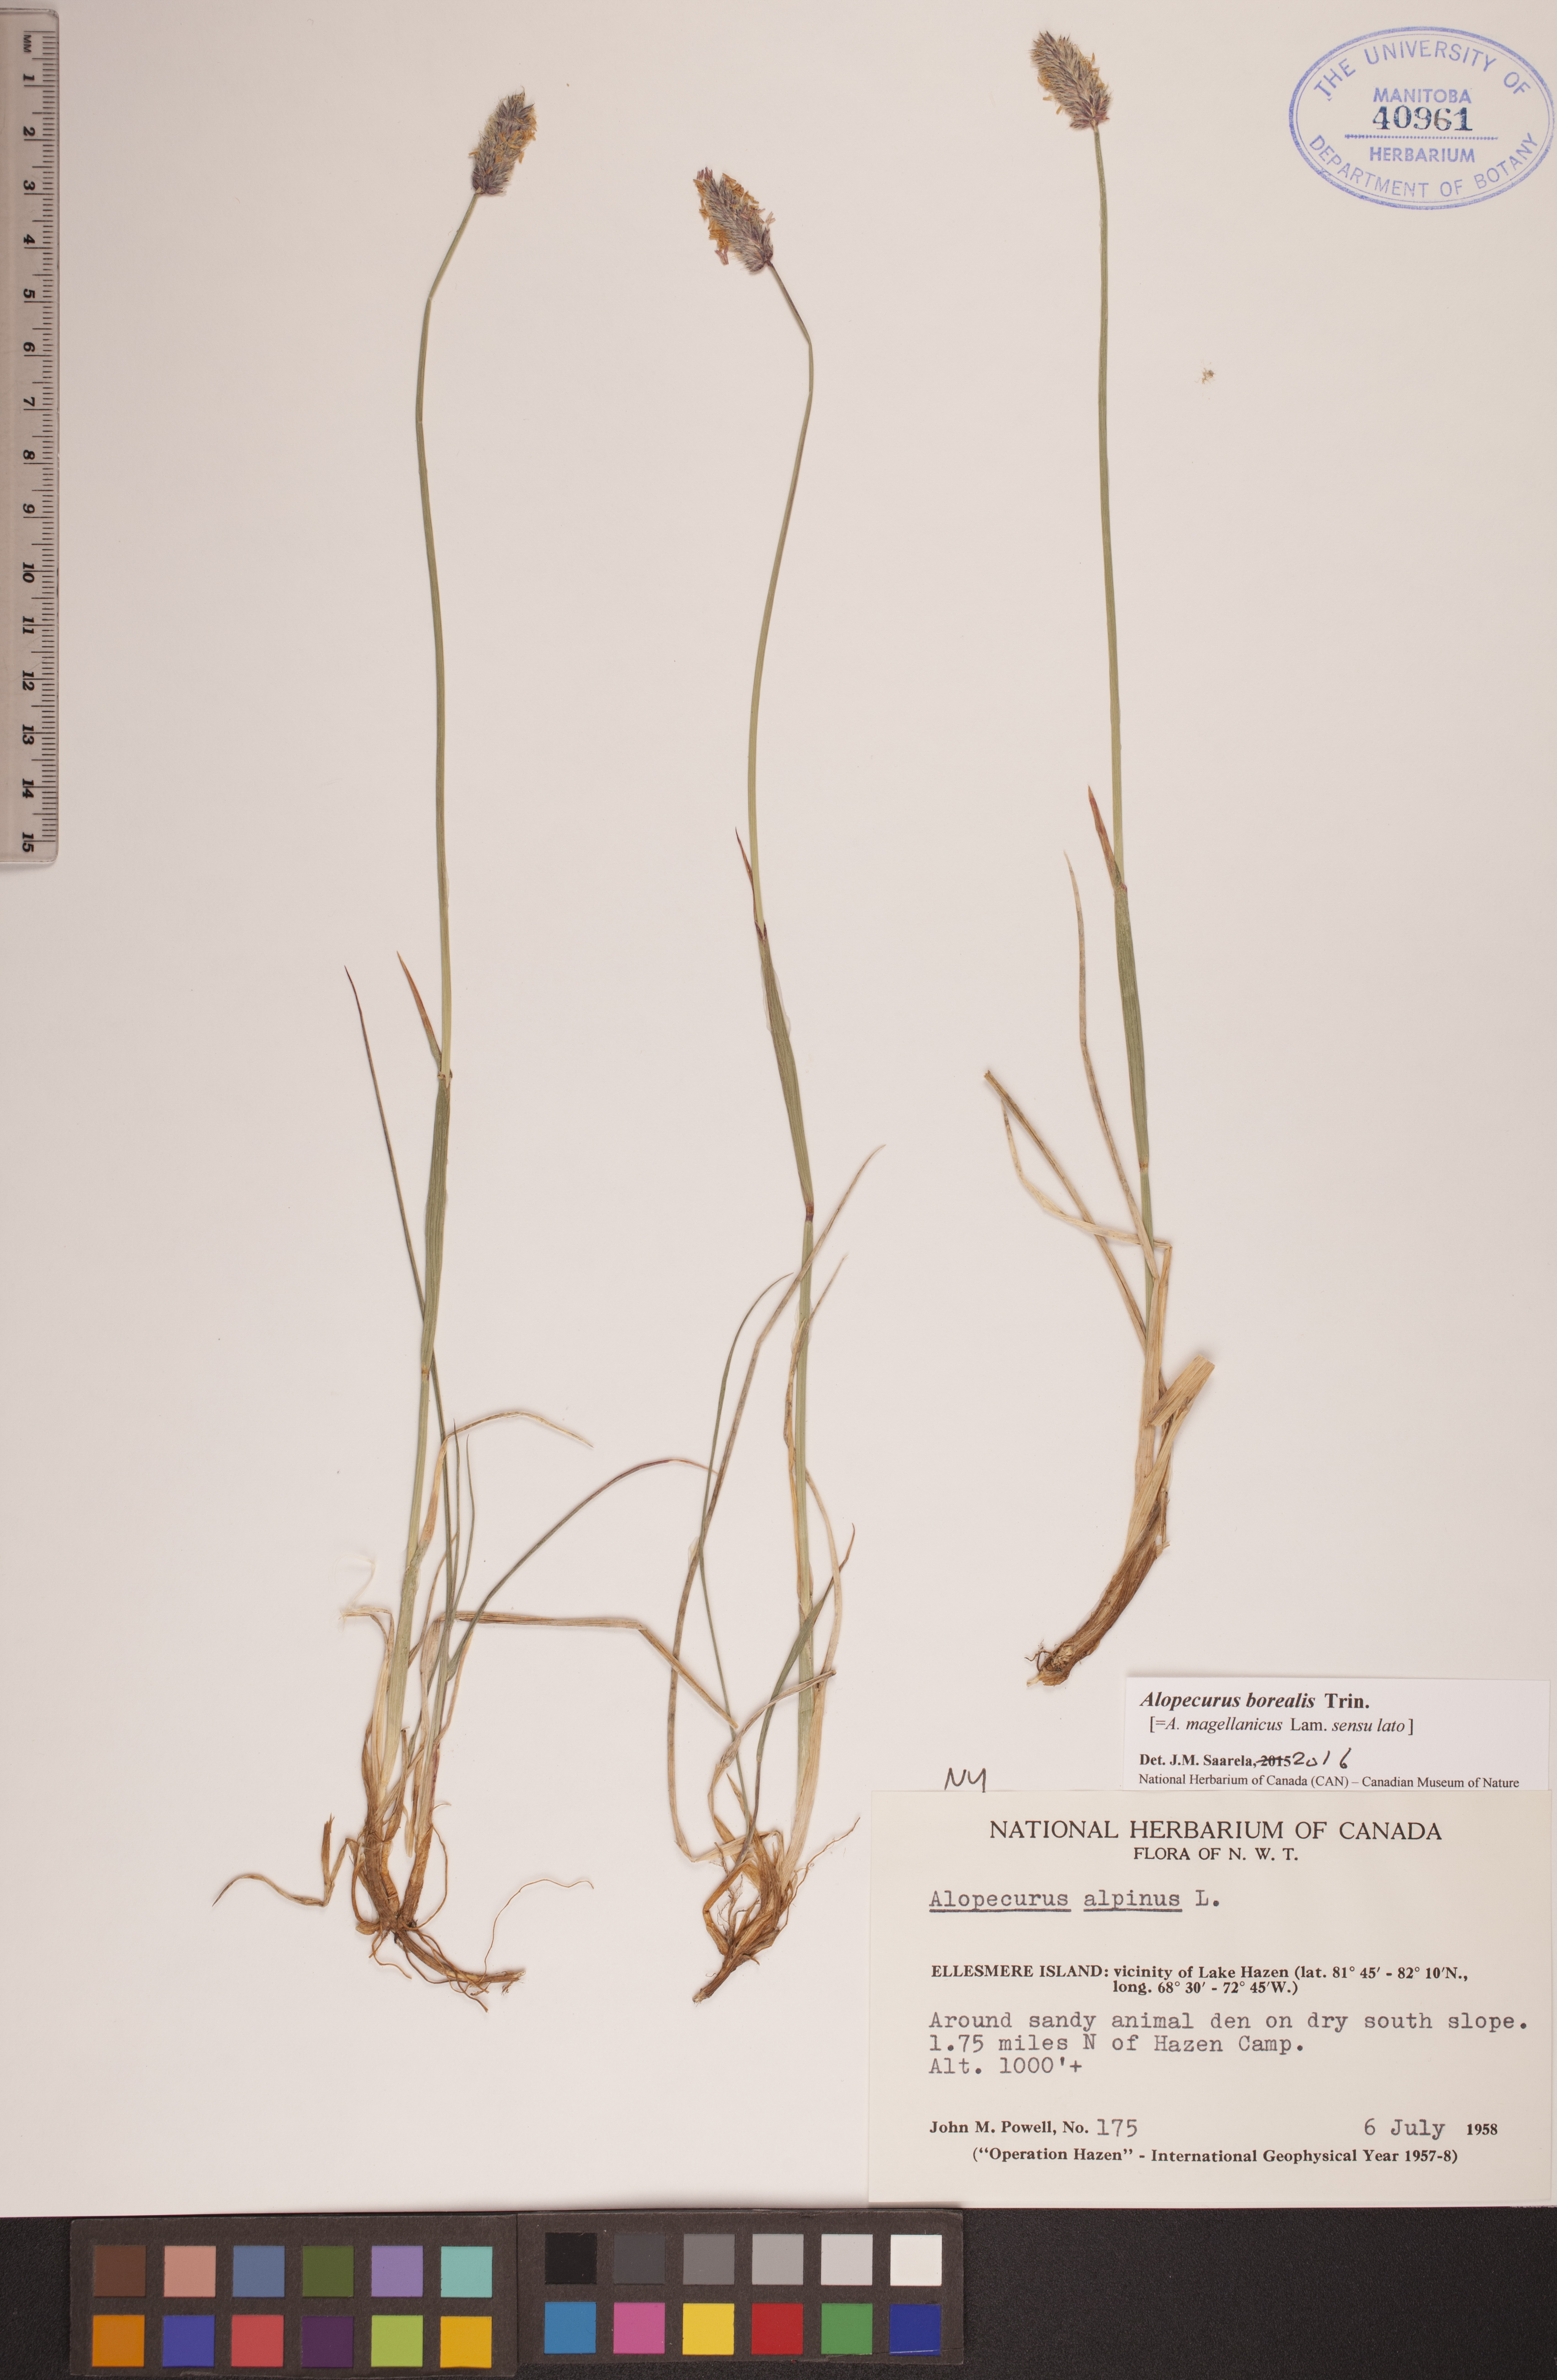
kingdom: Plantae
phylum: Tracheophyta
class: Liliopsida
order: Poales
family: Poaceae
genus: Alopecurus
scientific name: Alopecurus magellanicus
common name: Alpine foxtail
